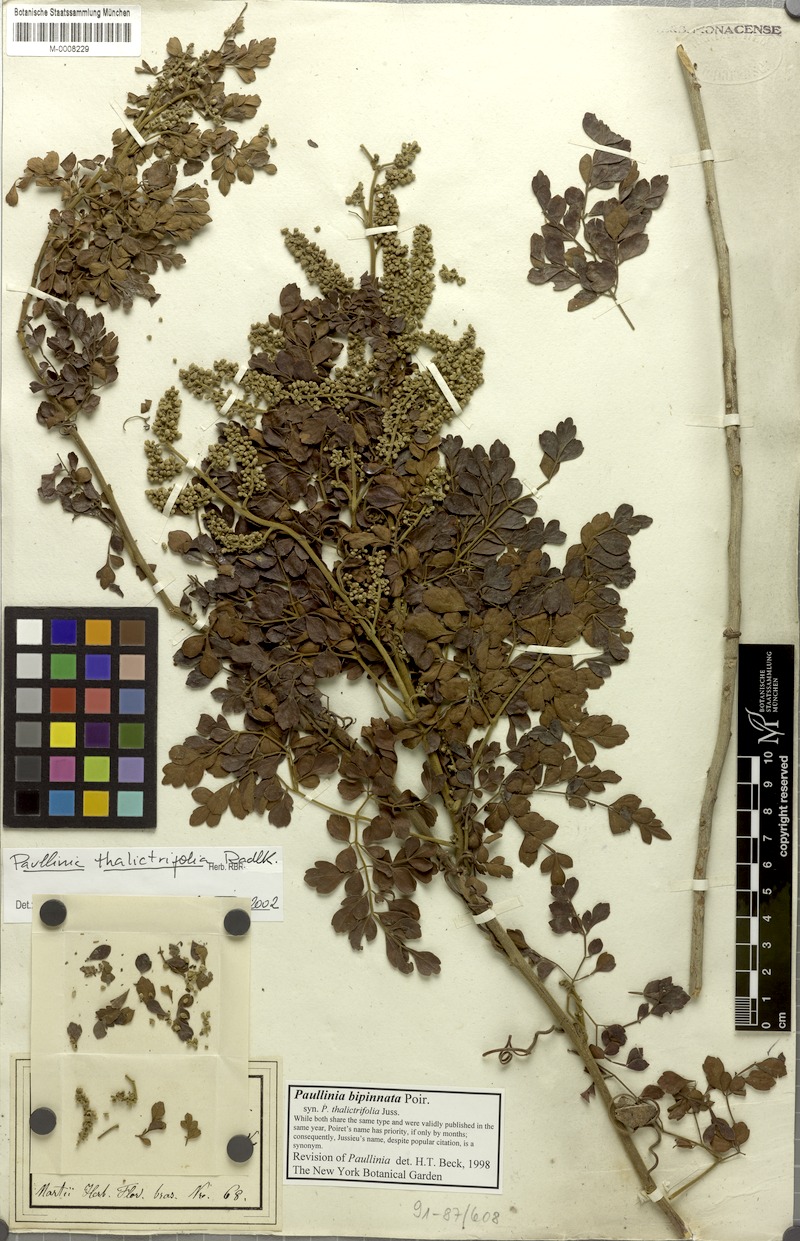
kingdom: Plantae
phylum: Tracheophyta
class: Magnoliopsida
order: Sapindales
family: Sapindaceae
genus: Paullinia
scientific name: Paullinia bipinnata
